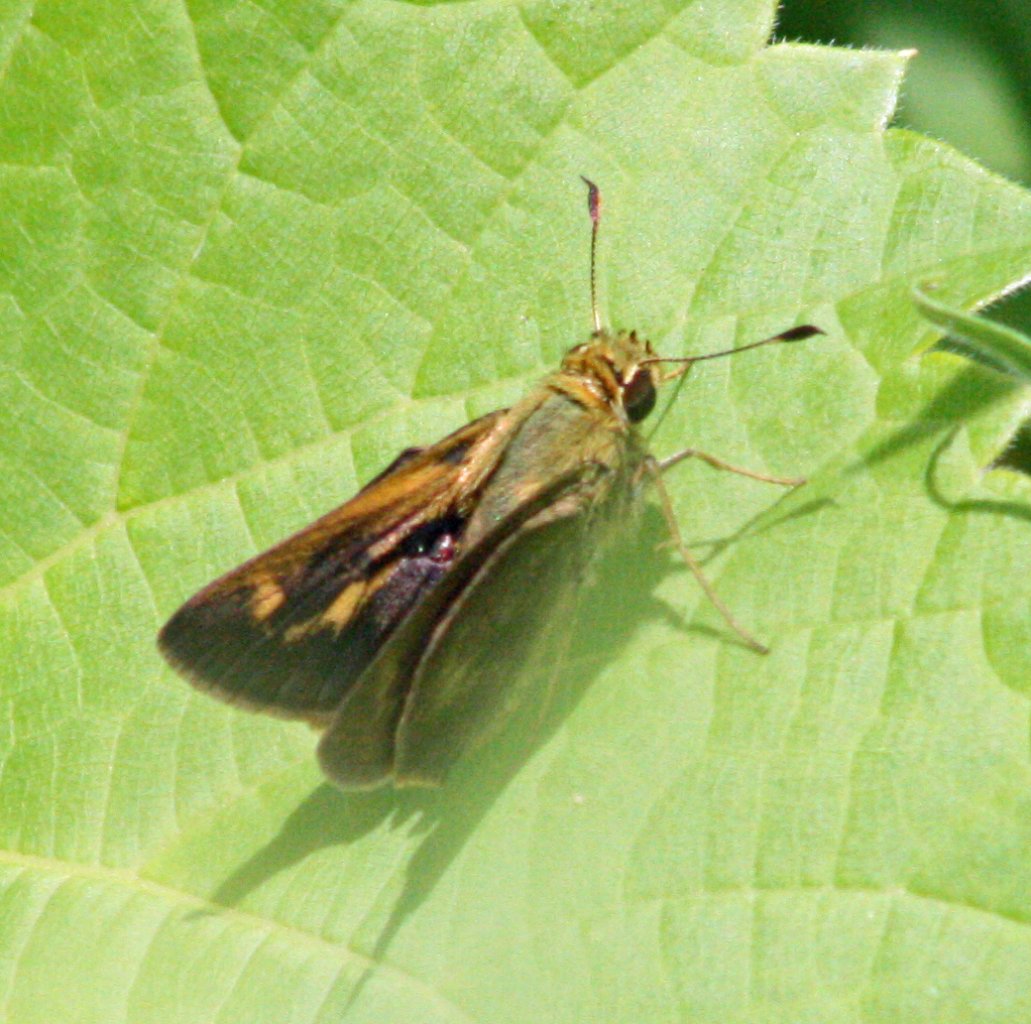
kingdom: Animalia
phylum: Arthropoda
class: Insecta
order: Lepidoptera
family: Hesperiidae
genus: Polites
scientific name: Polites egeremet
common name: Northern Broken-Dash
